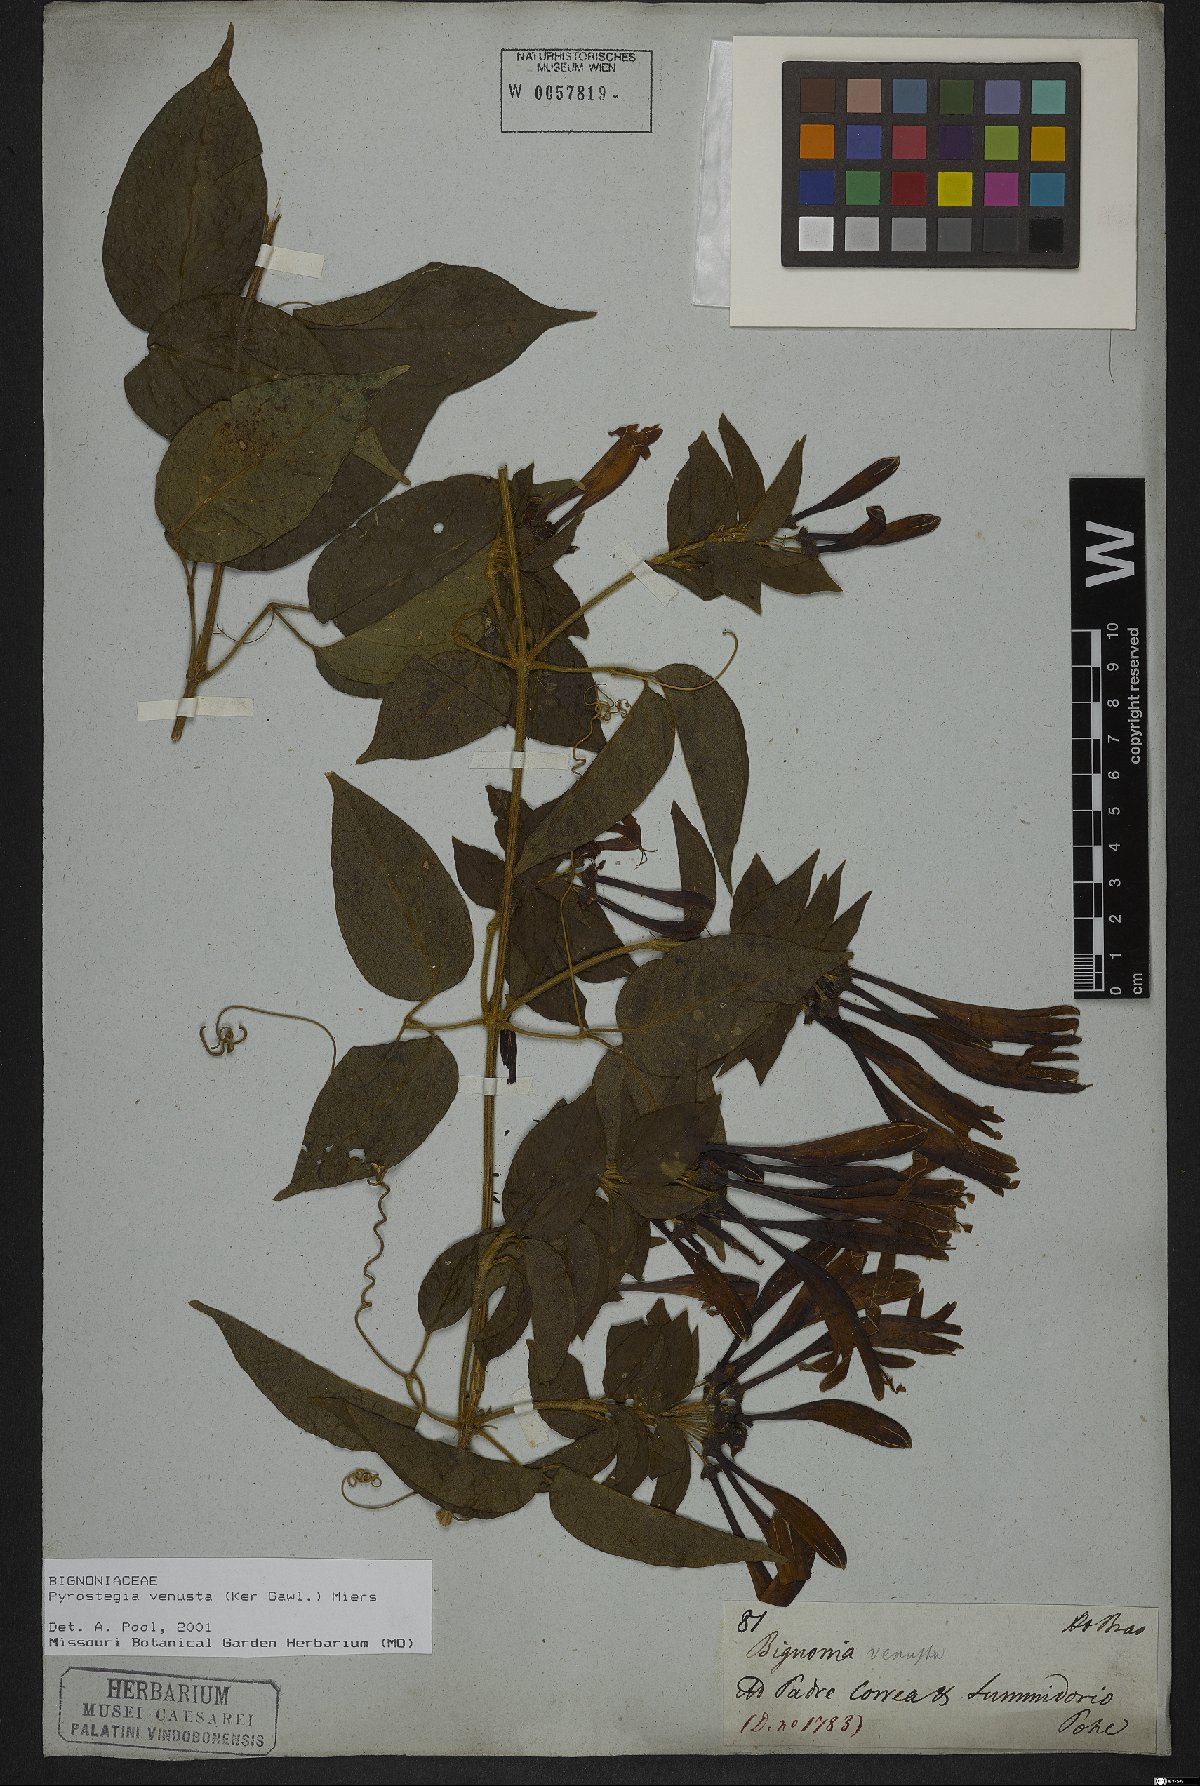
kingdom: Plantae
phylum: Tracheophyta
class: Magnoliopsida
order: Lamiales
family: Bignoniaceae
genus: Pyrostegia
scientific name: Pyrostegia venusta
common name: Flamevine
